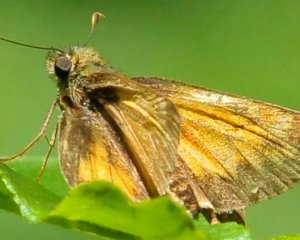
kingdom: Animalia
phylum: Arthropoda
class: Insecta
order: Lepidoptera
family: Hesperiidae
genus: Lon
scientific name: Lon hobomok
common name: Hobomok Skipper
